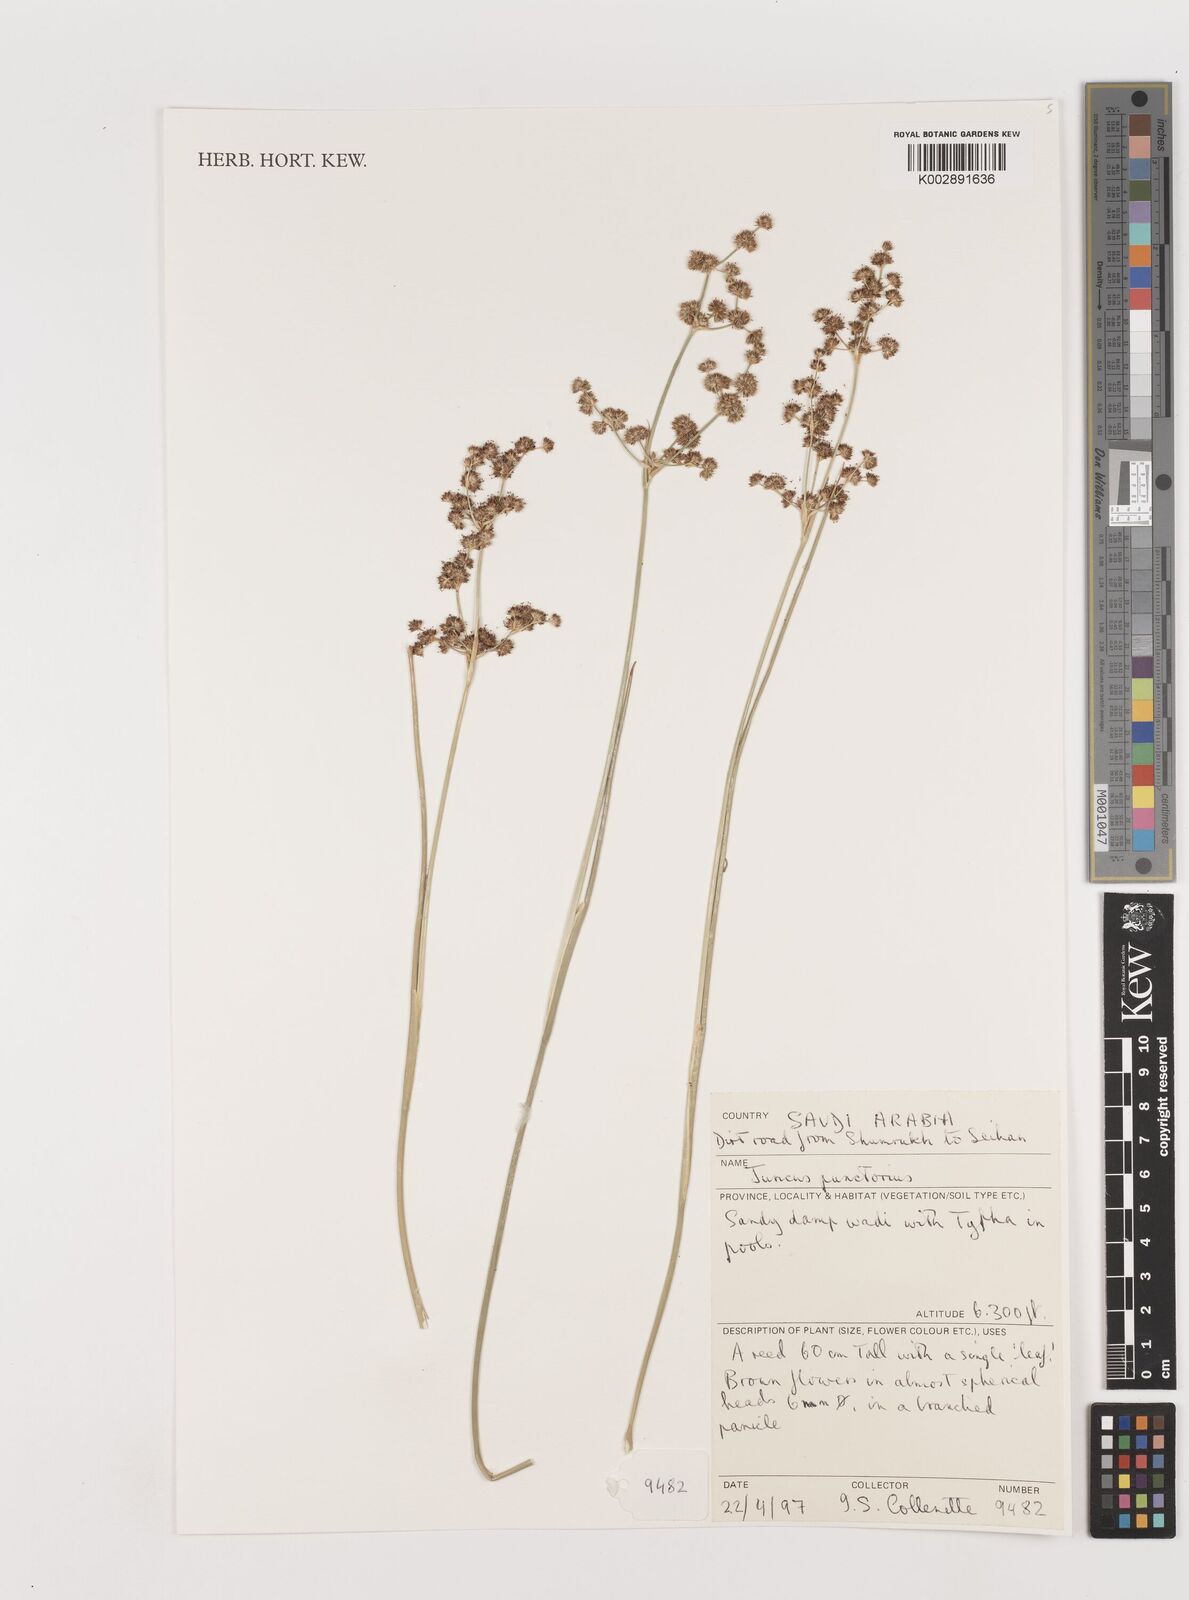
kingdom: Plantae
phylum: Tracheophyta
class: Liliopsida
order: Poales
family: Juncaceae
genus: Juncus
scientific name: Juncus punctorius
